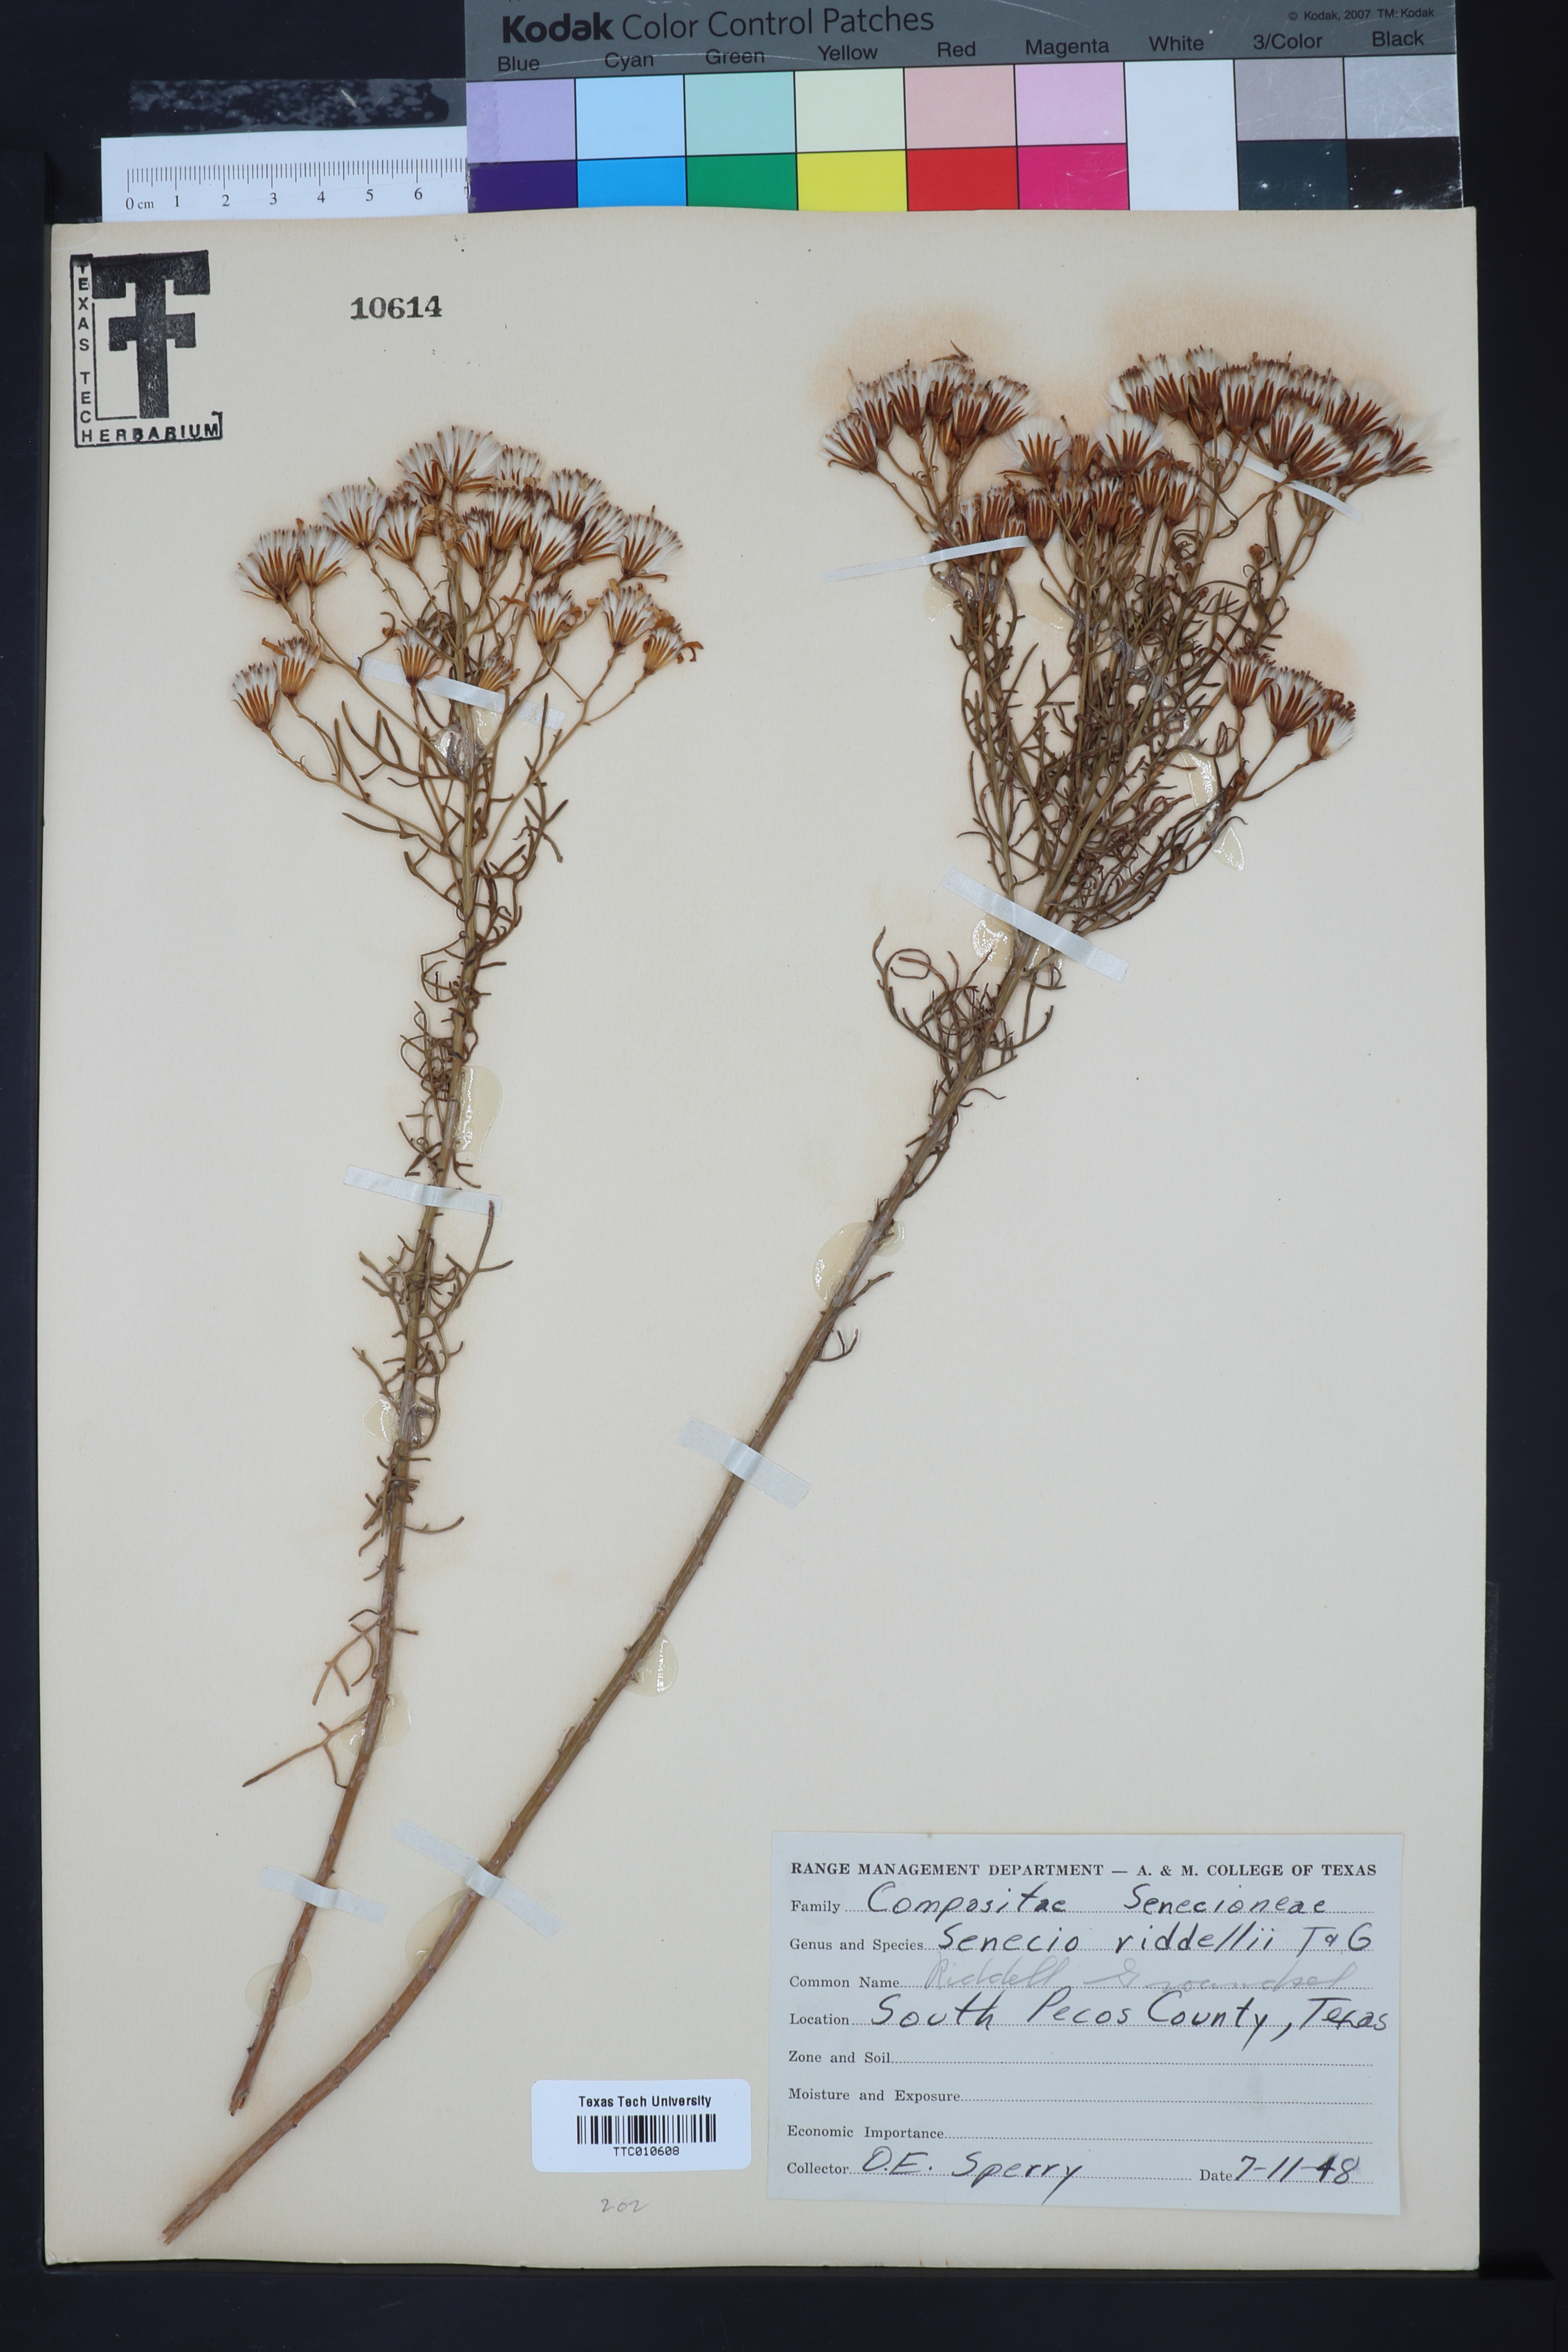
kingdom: Plantae
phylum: Tracheophyta
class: Magnoliopsida
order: Asterales
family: Asteraceae
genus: Senecio
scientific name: Senecio riddellii
